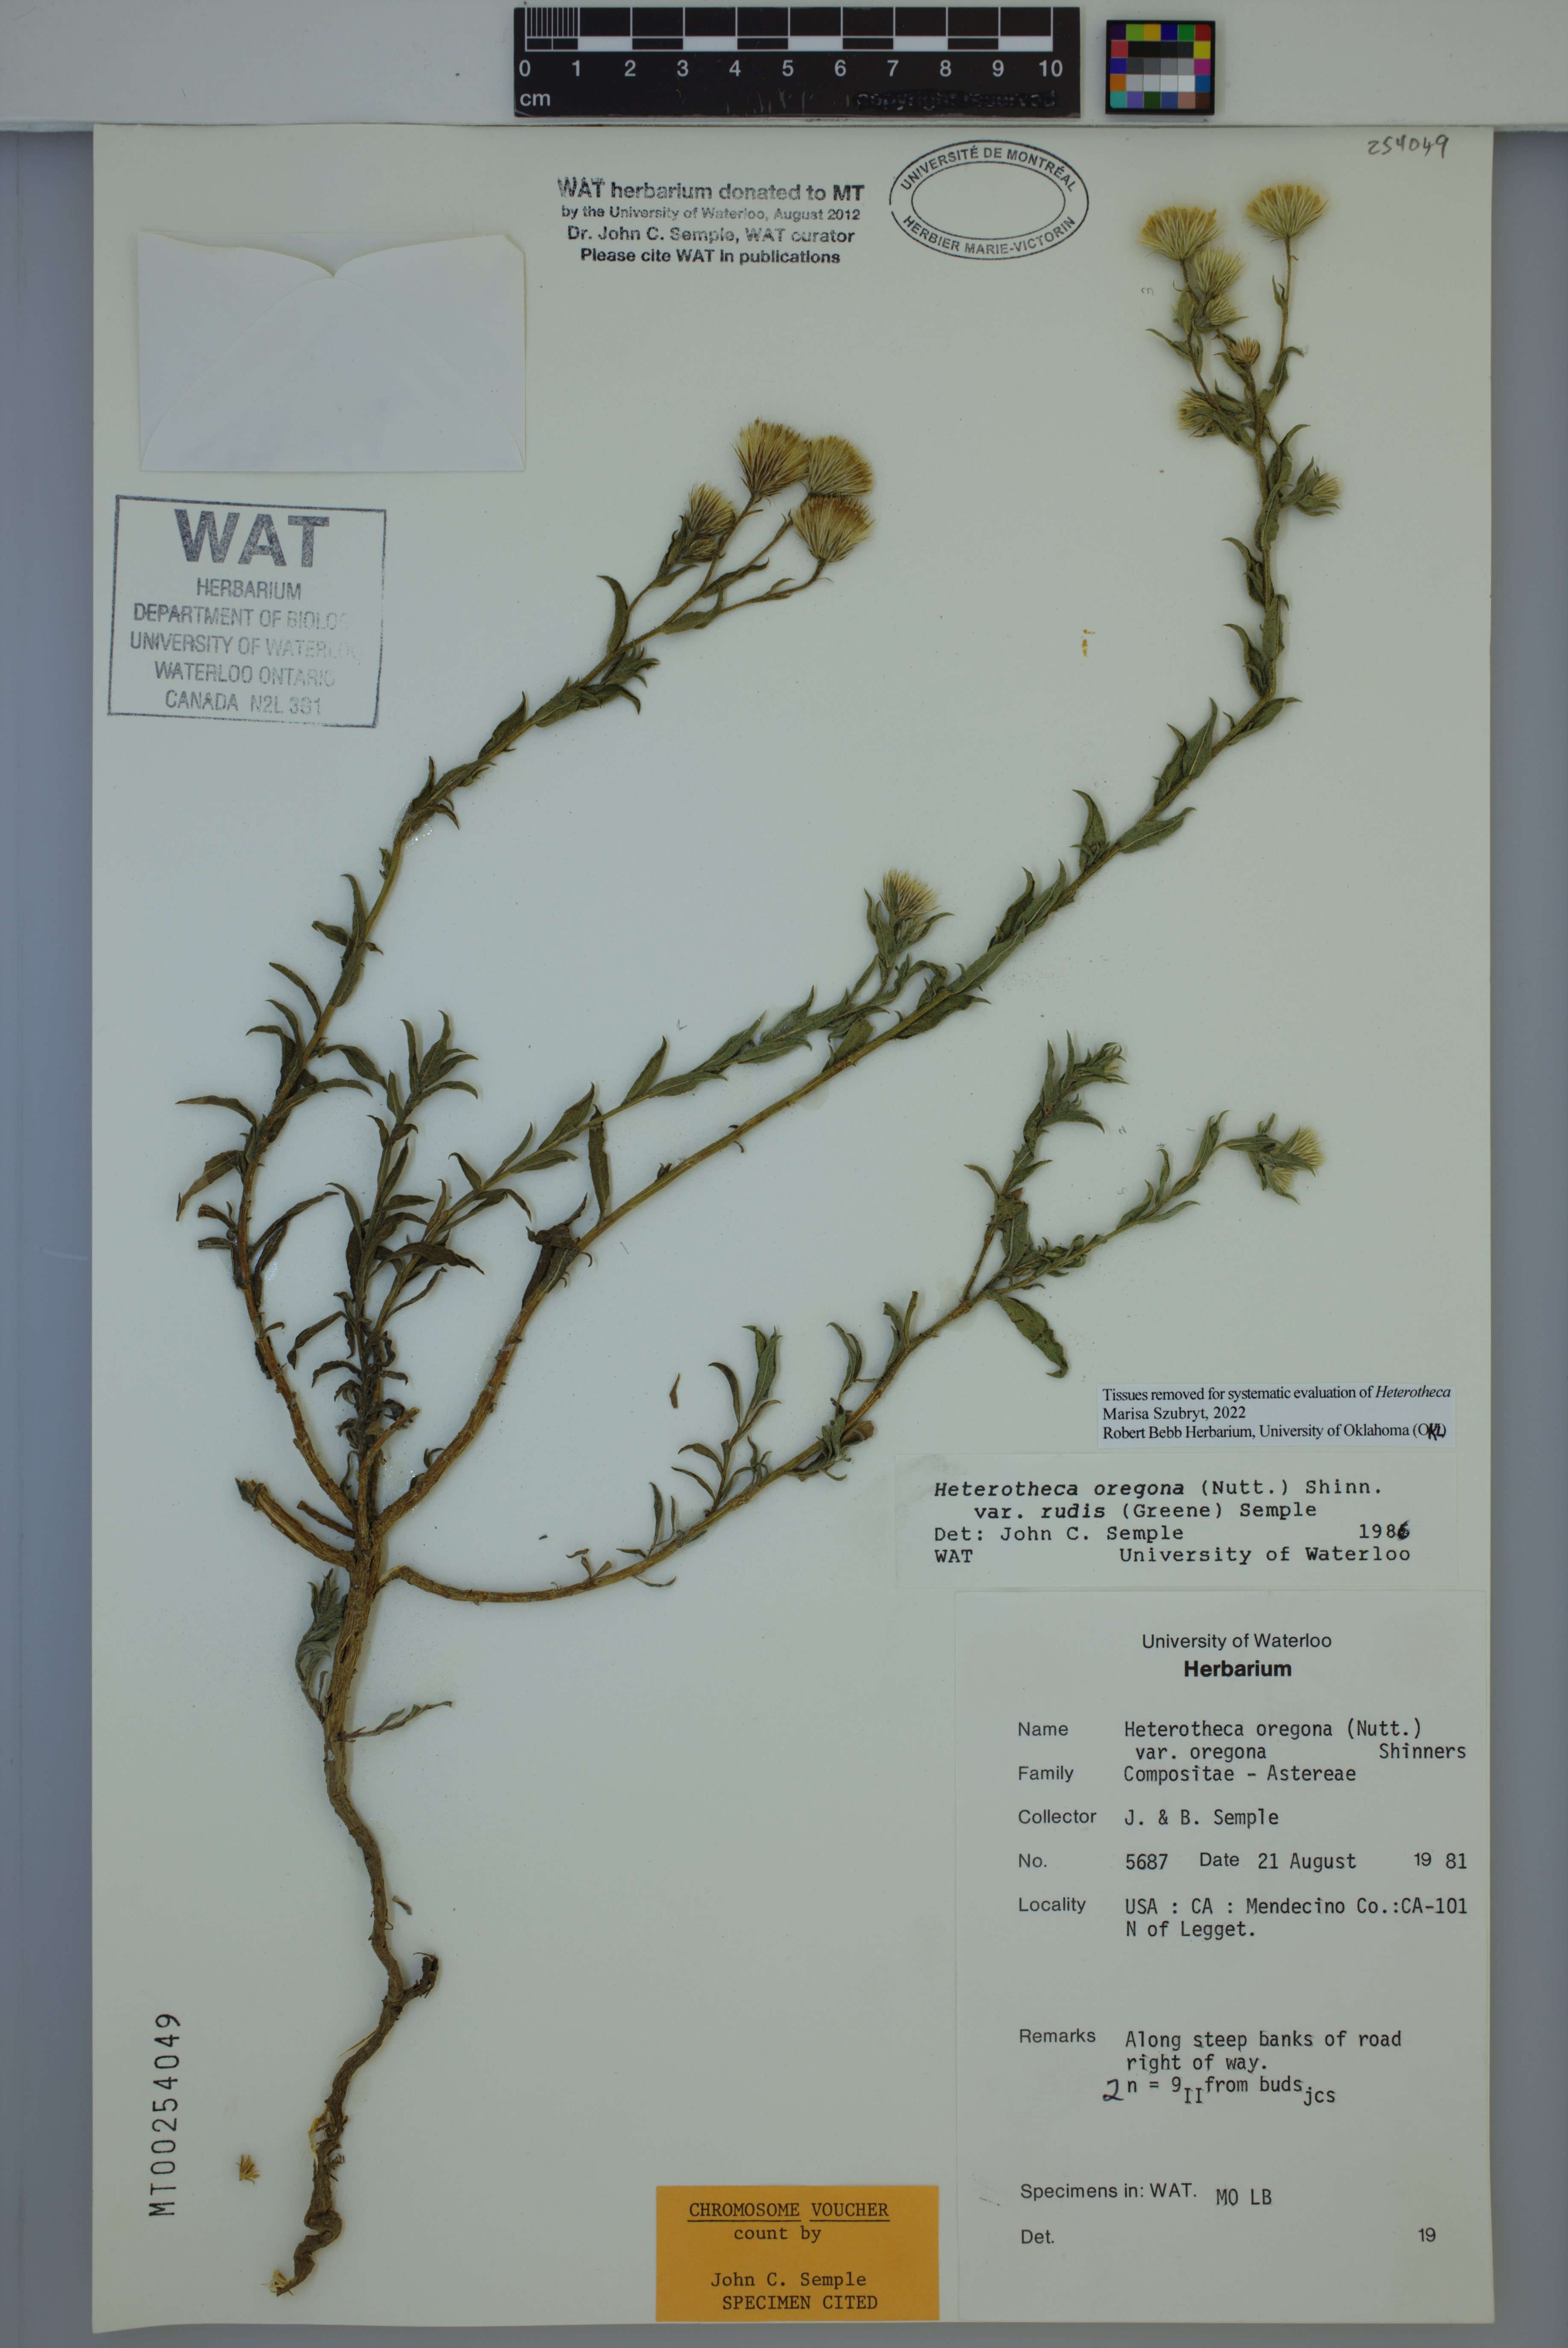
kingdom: Plantae
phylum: Tracheophyta
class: Magnoliopsida
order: Asterales
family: Asteraceae
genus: Heterotheca
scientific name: Heterotheca rudis
